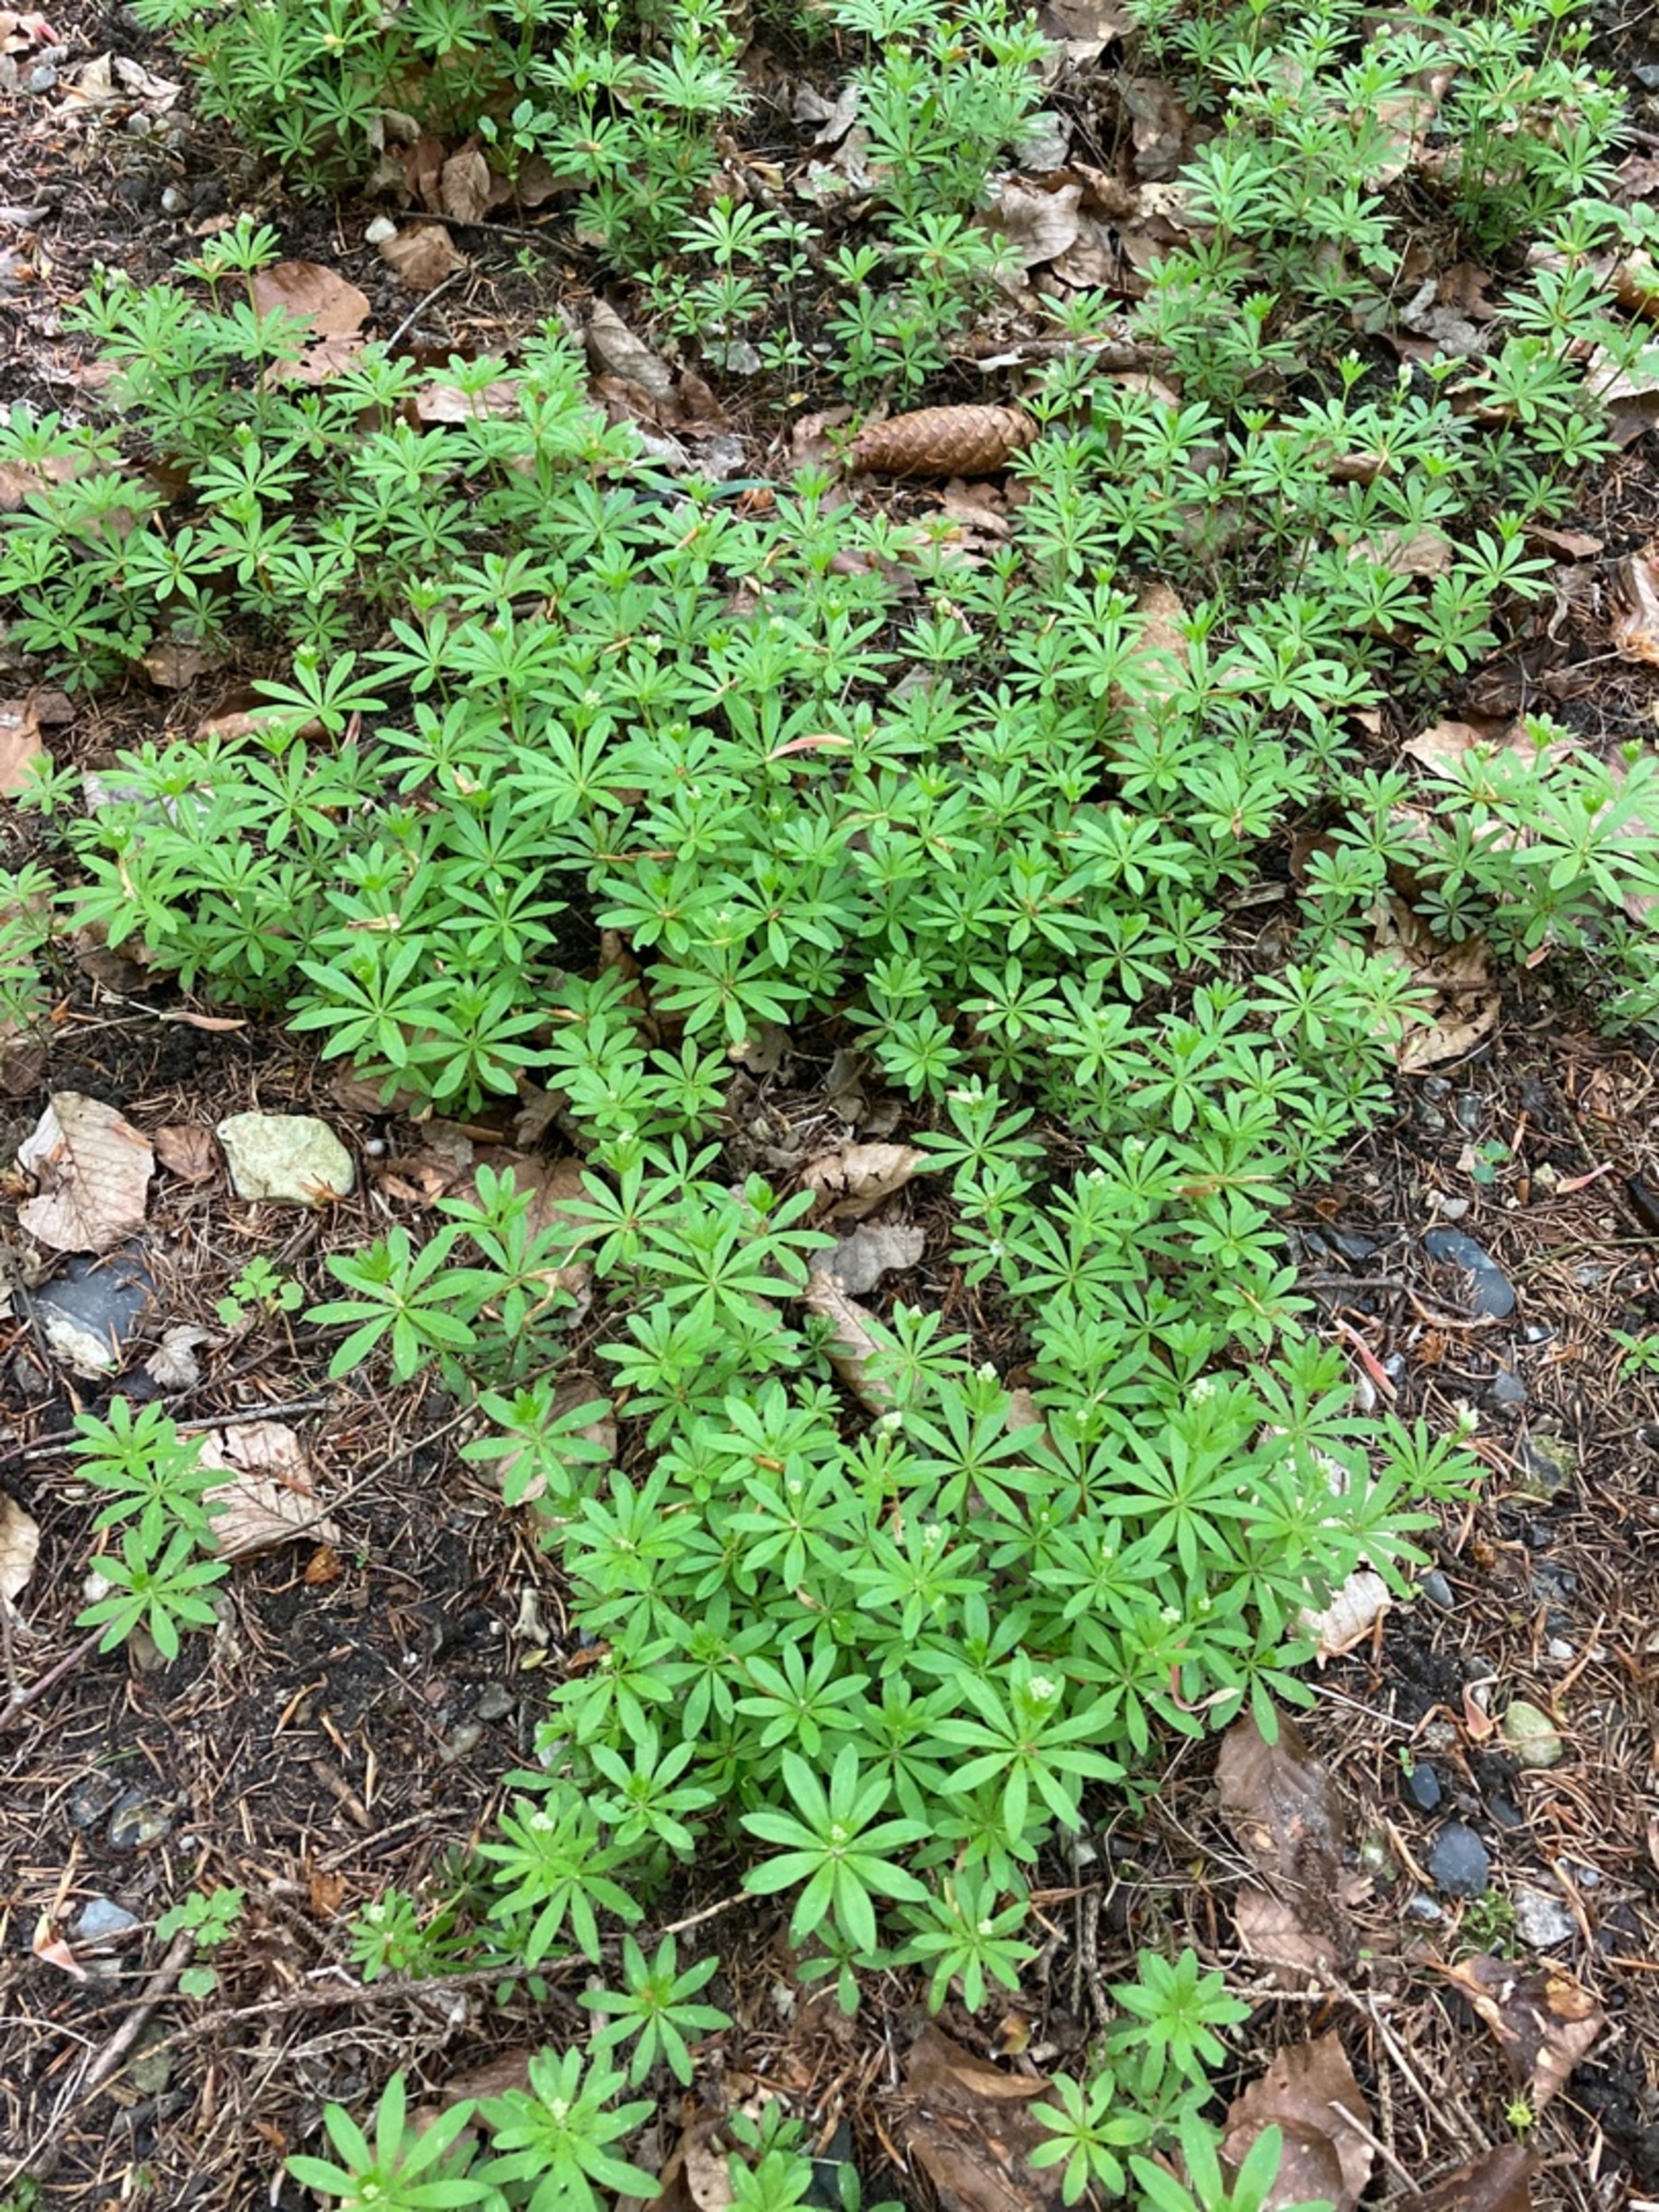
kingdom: Plantae
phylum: Tracheophyta
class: Magnoliopsida
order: Gentianales
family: Rubiaceae
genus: Galium
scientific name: Galium odoratum
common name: Skovmærke
